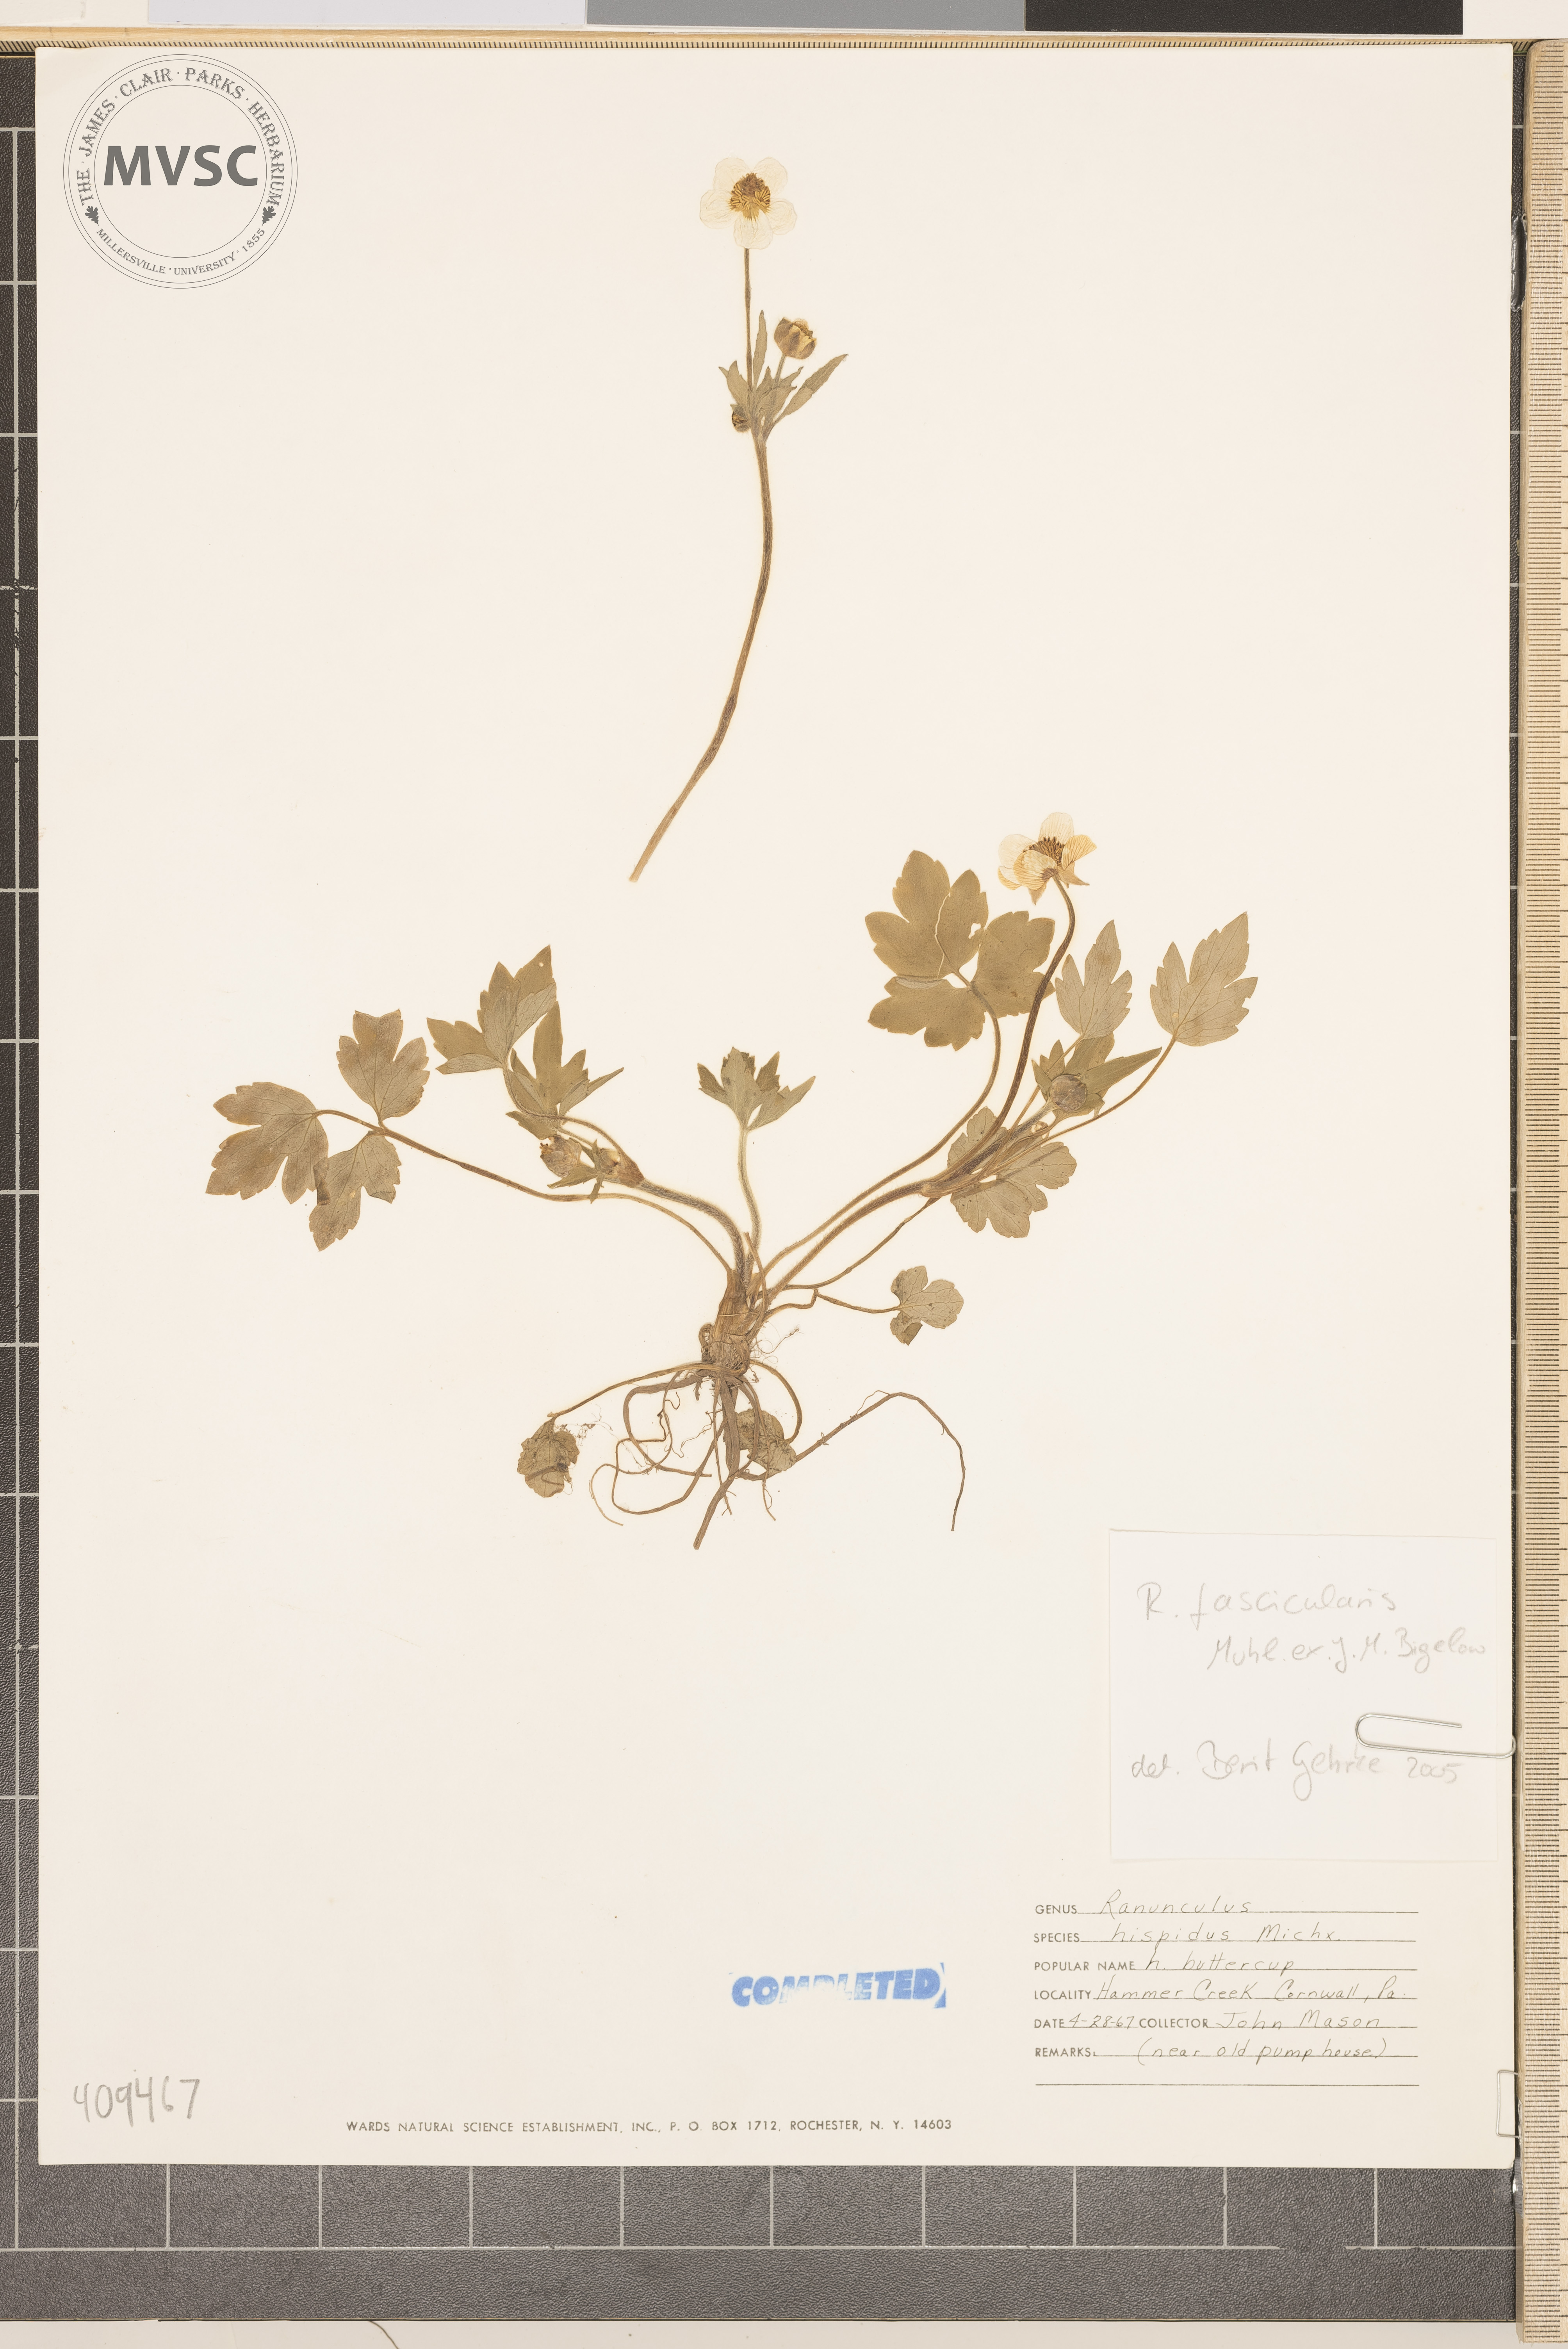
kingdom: Plantae
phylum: Tracheophyta
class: Magnoliopsida
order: Ranunculales
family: Ranunculaceae
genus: Ranunculus
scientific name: Ranunculus hispidus
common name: early buttercup
